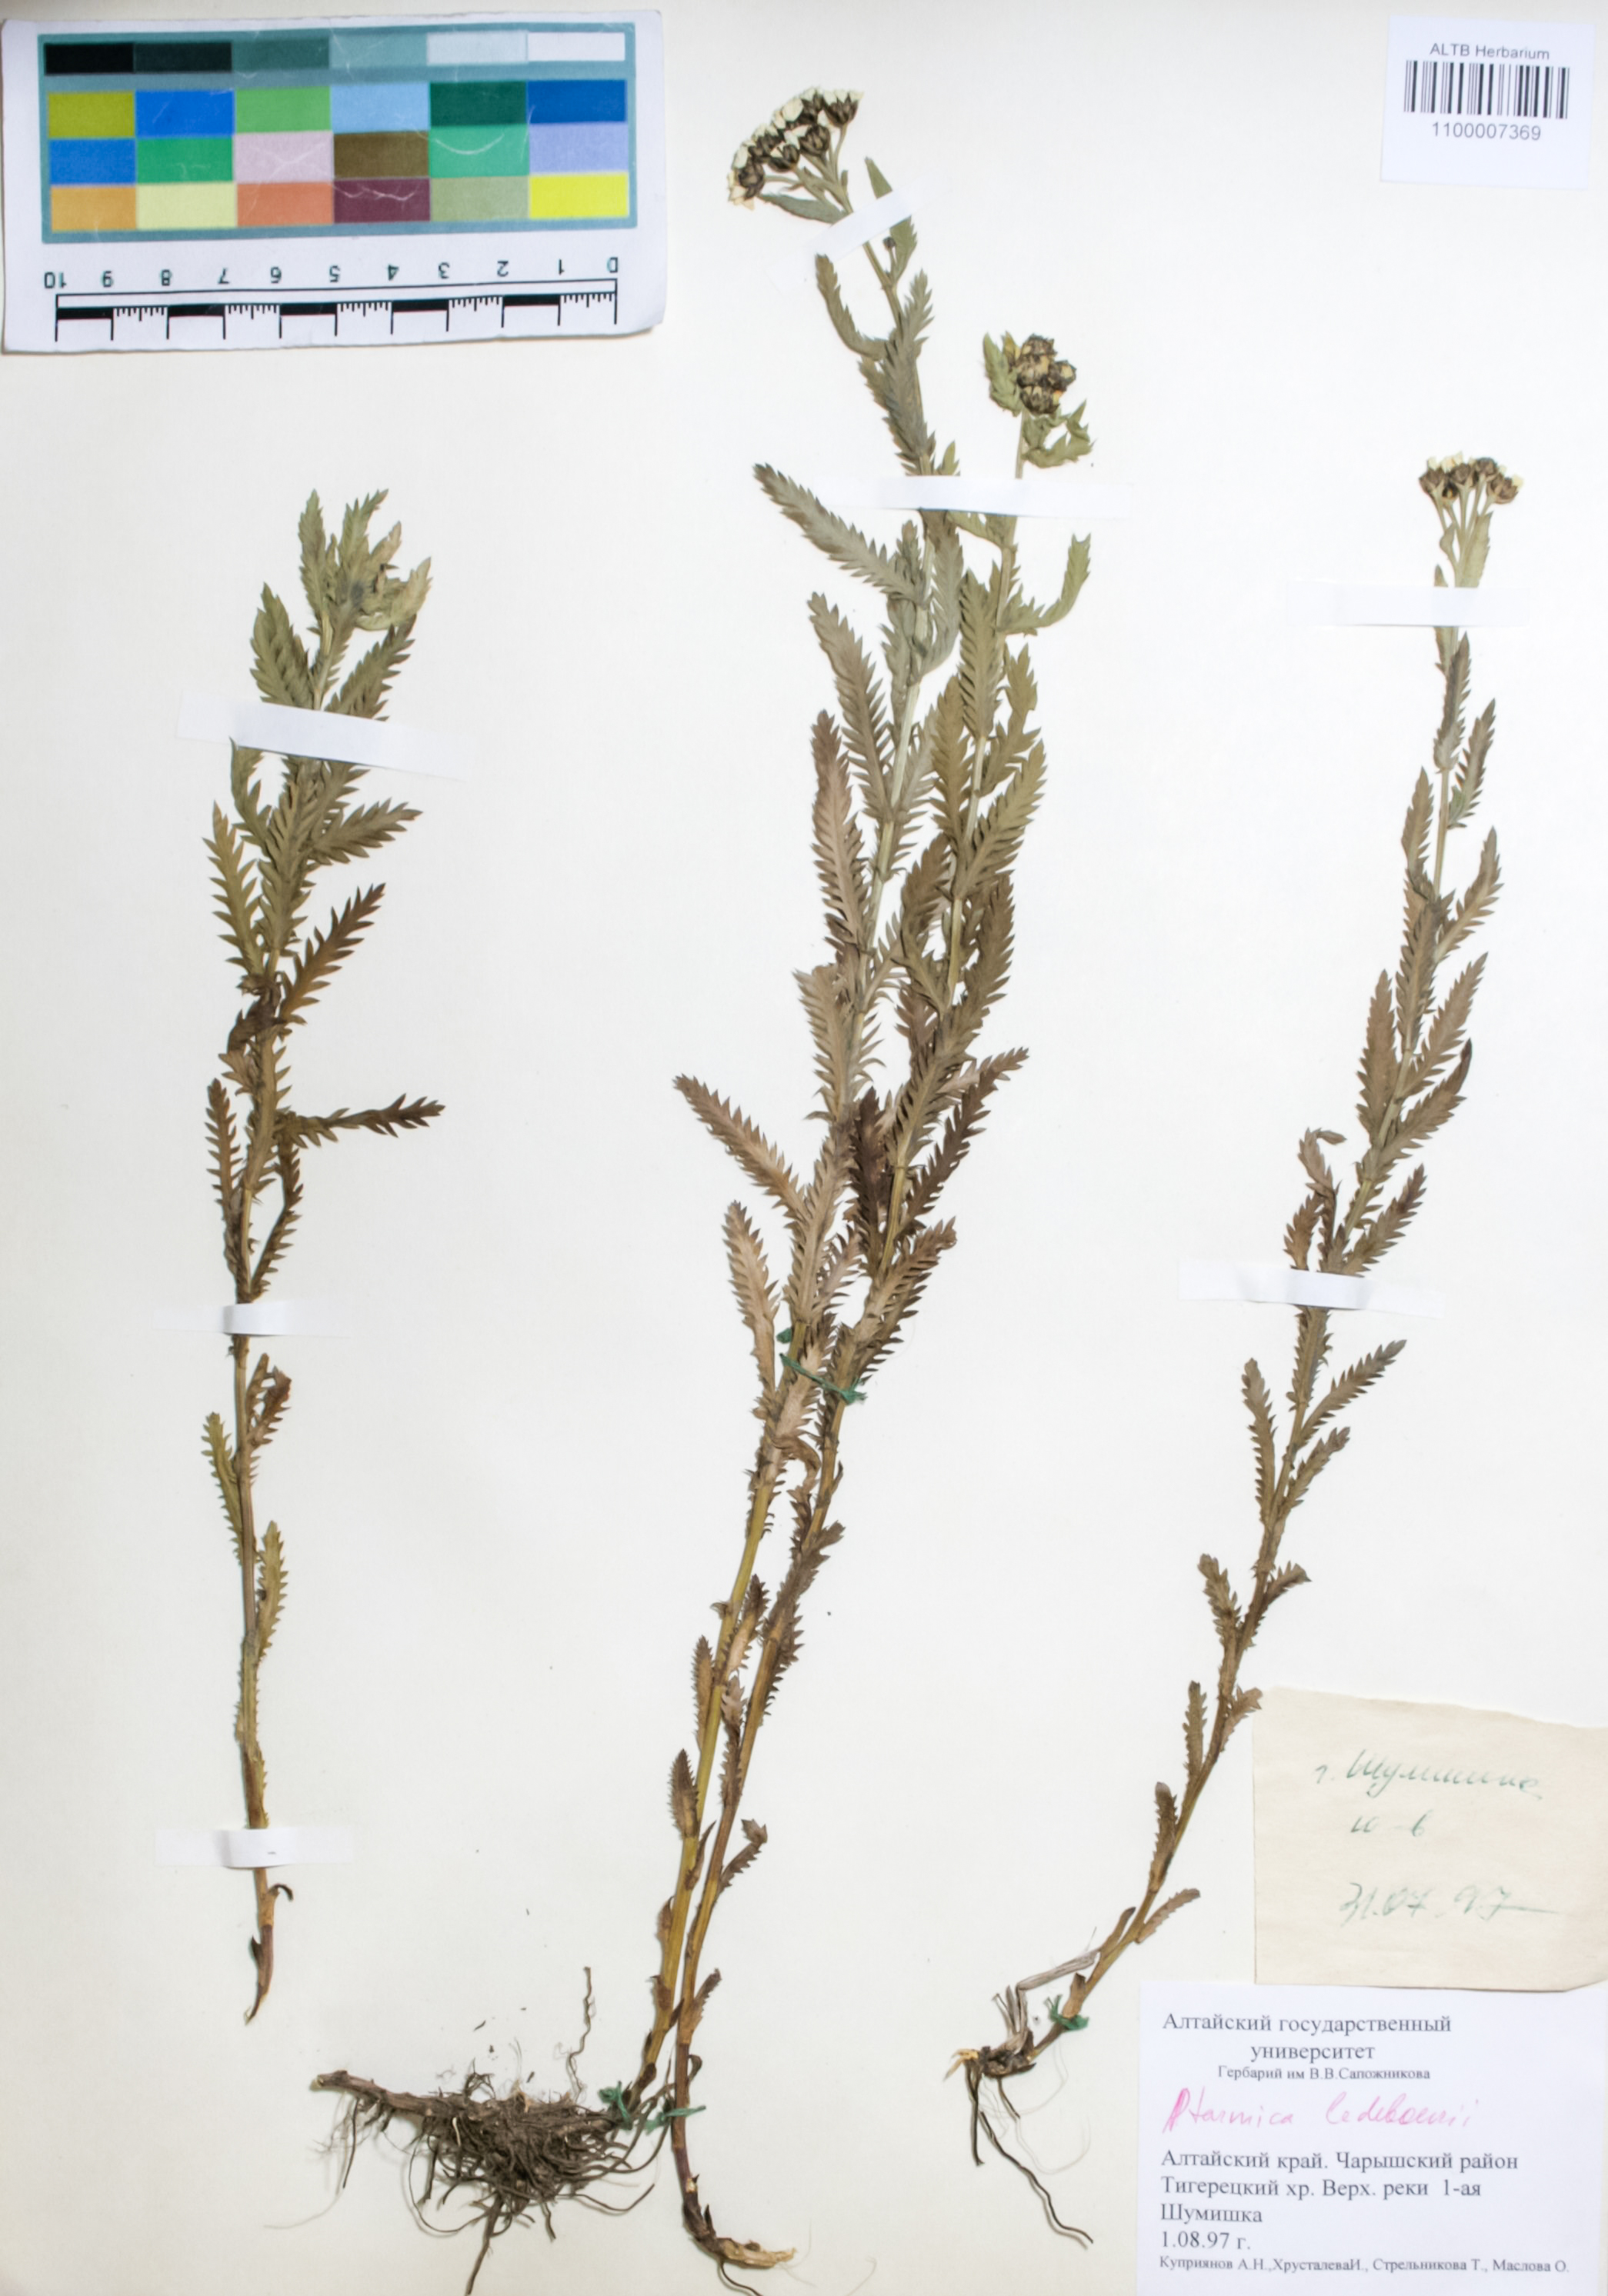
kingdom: Plantae
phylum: Tracheophyta
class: Magnoliopsida
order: Asterales
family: Asteraceae
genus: Achillea
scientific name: Achillea ledebourii
